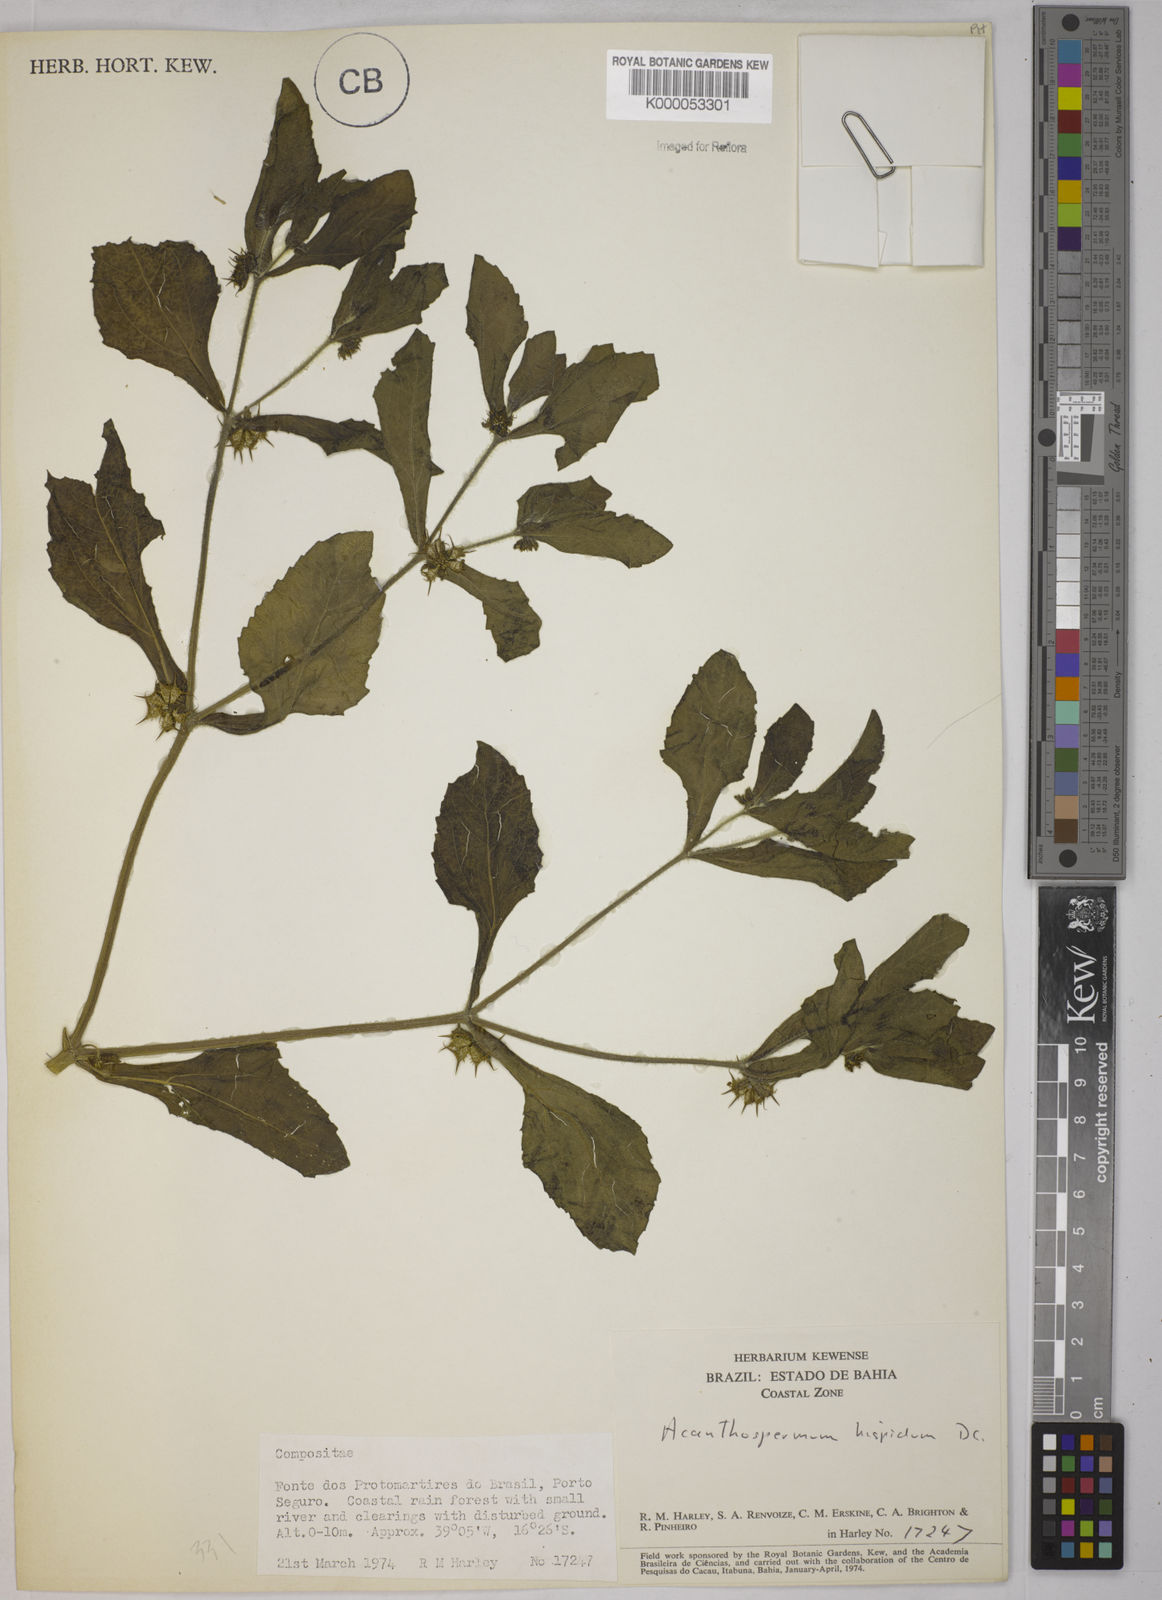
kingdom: Plantae
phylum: Tracheophyta
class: Magnoliopsida
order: Asterales
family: Asteraceae
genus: Acanthospermum
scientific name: Acanthospermum hispidum
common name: Hispid starbur
